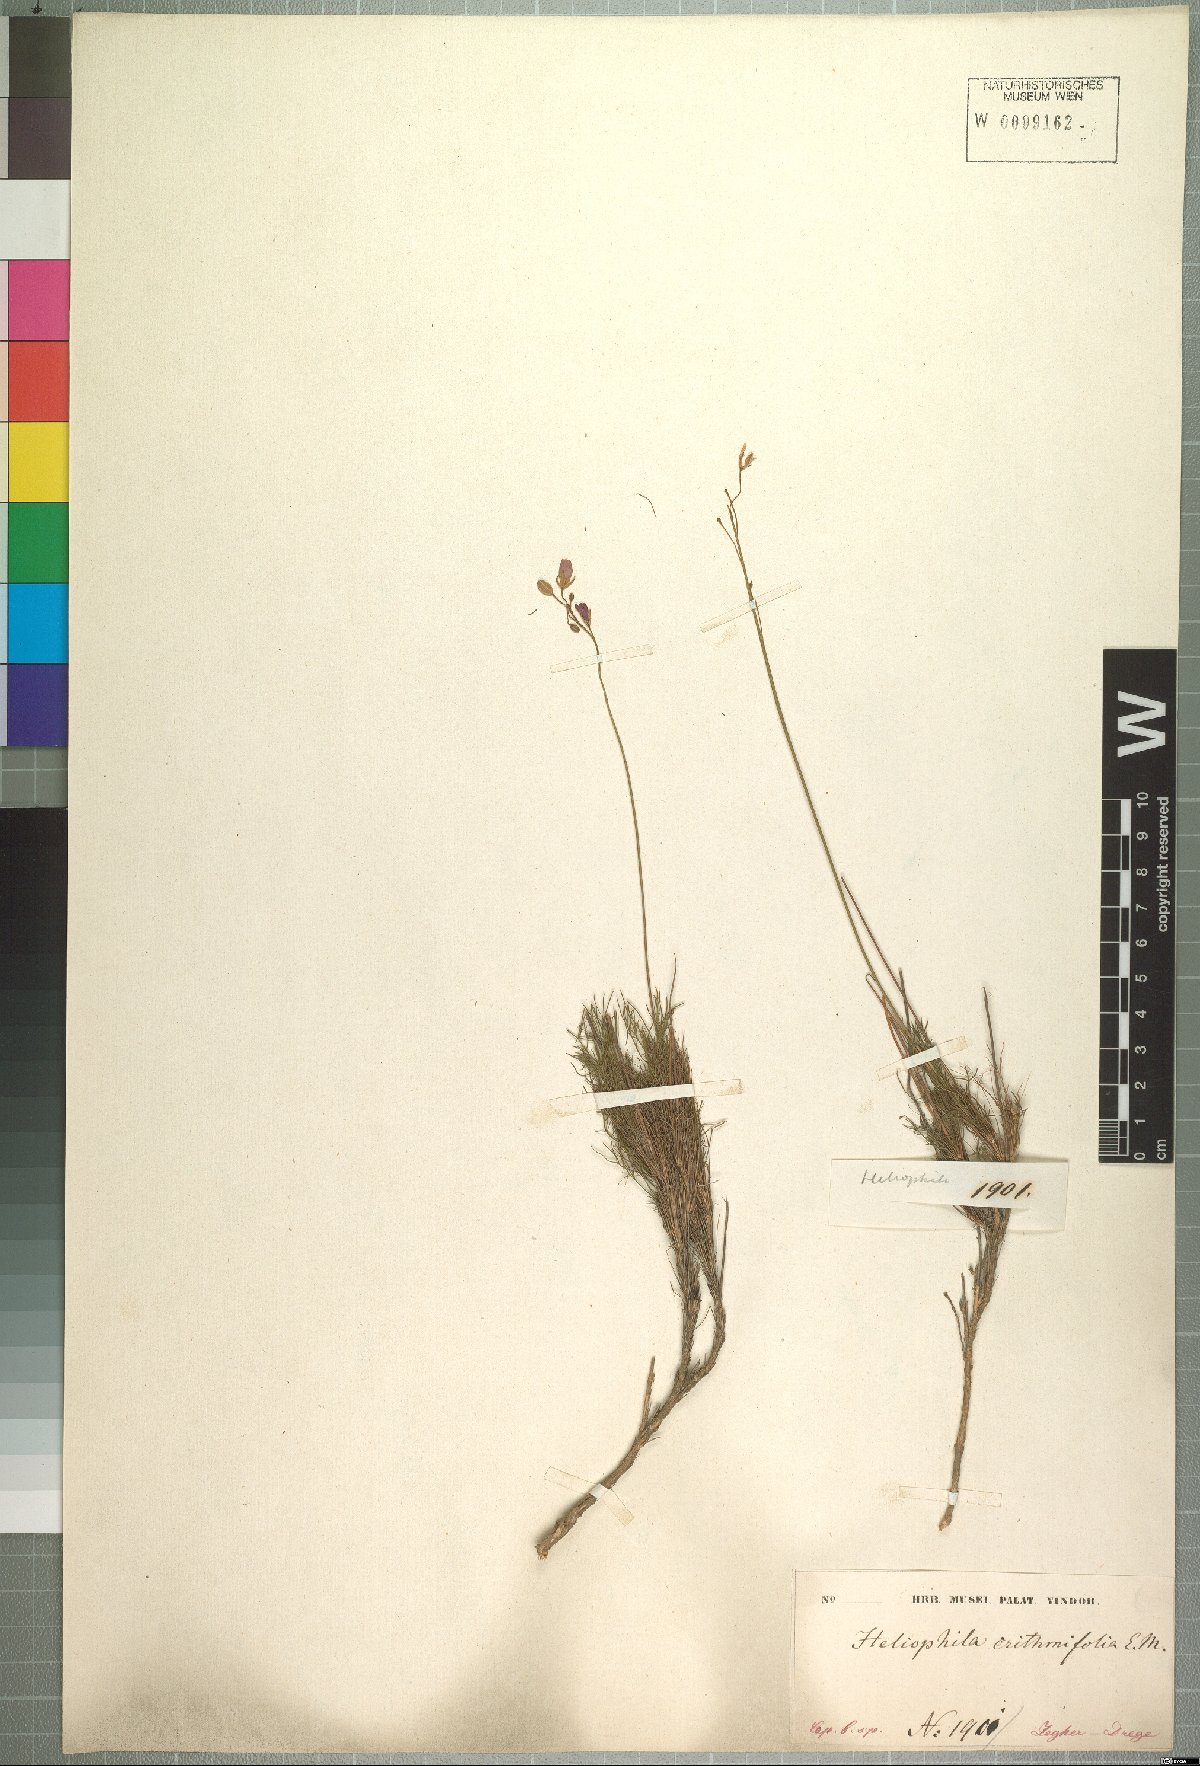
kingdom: Plantae
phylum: Tracheophyta
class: Magnoliopsida
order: Brassicales
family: Brassicaceae
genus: Heliophila
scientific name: Heliophila carnosa
